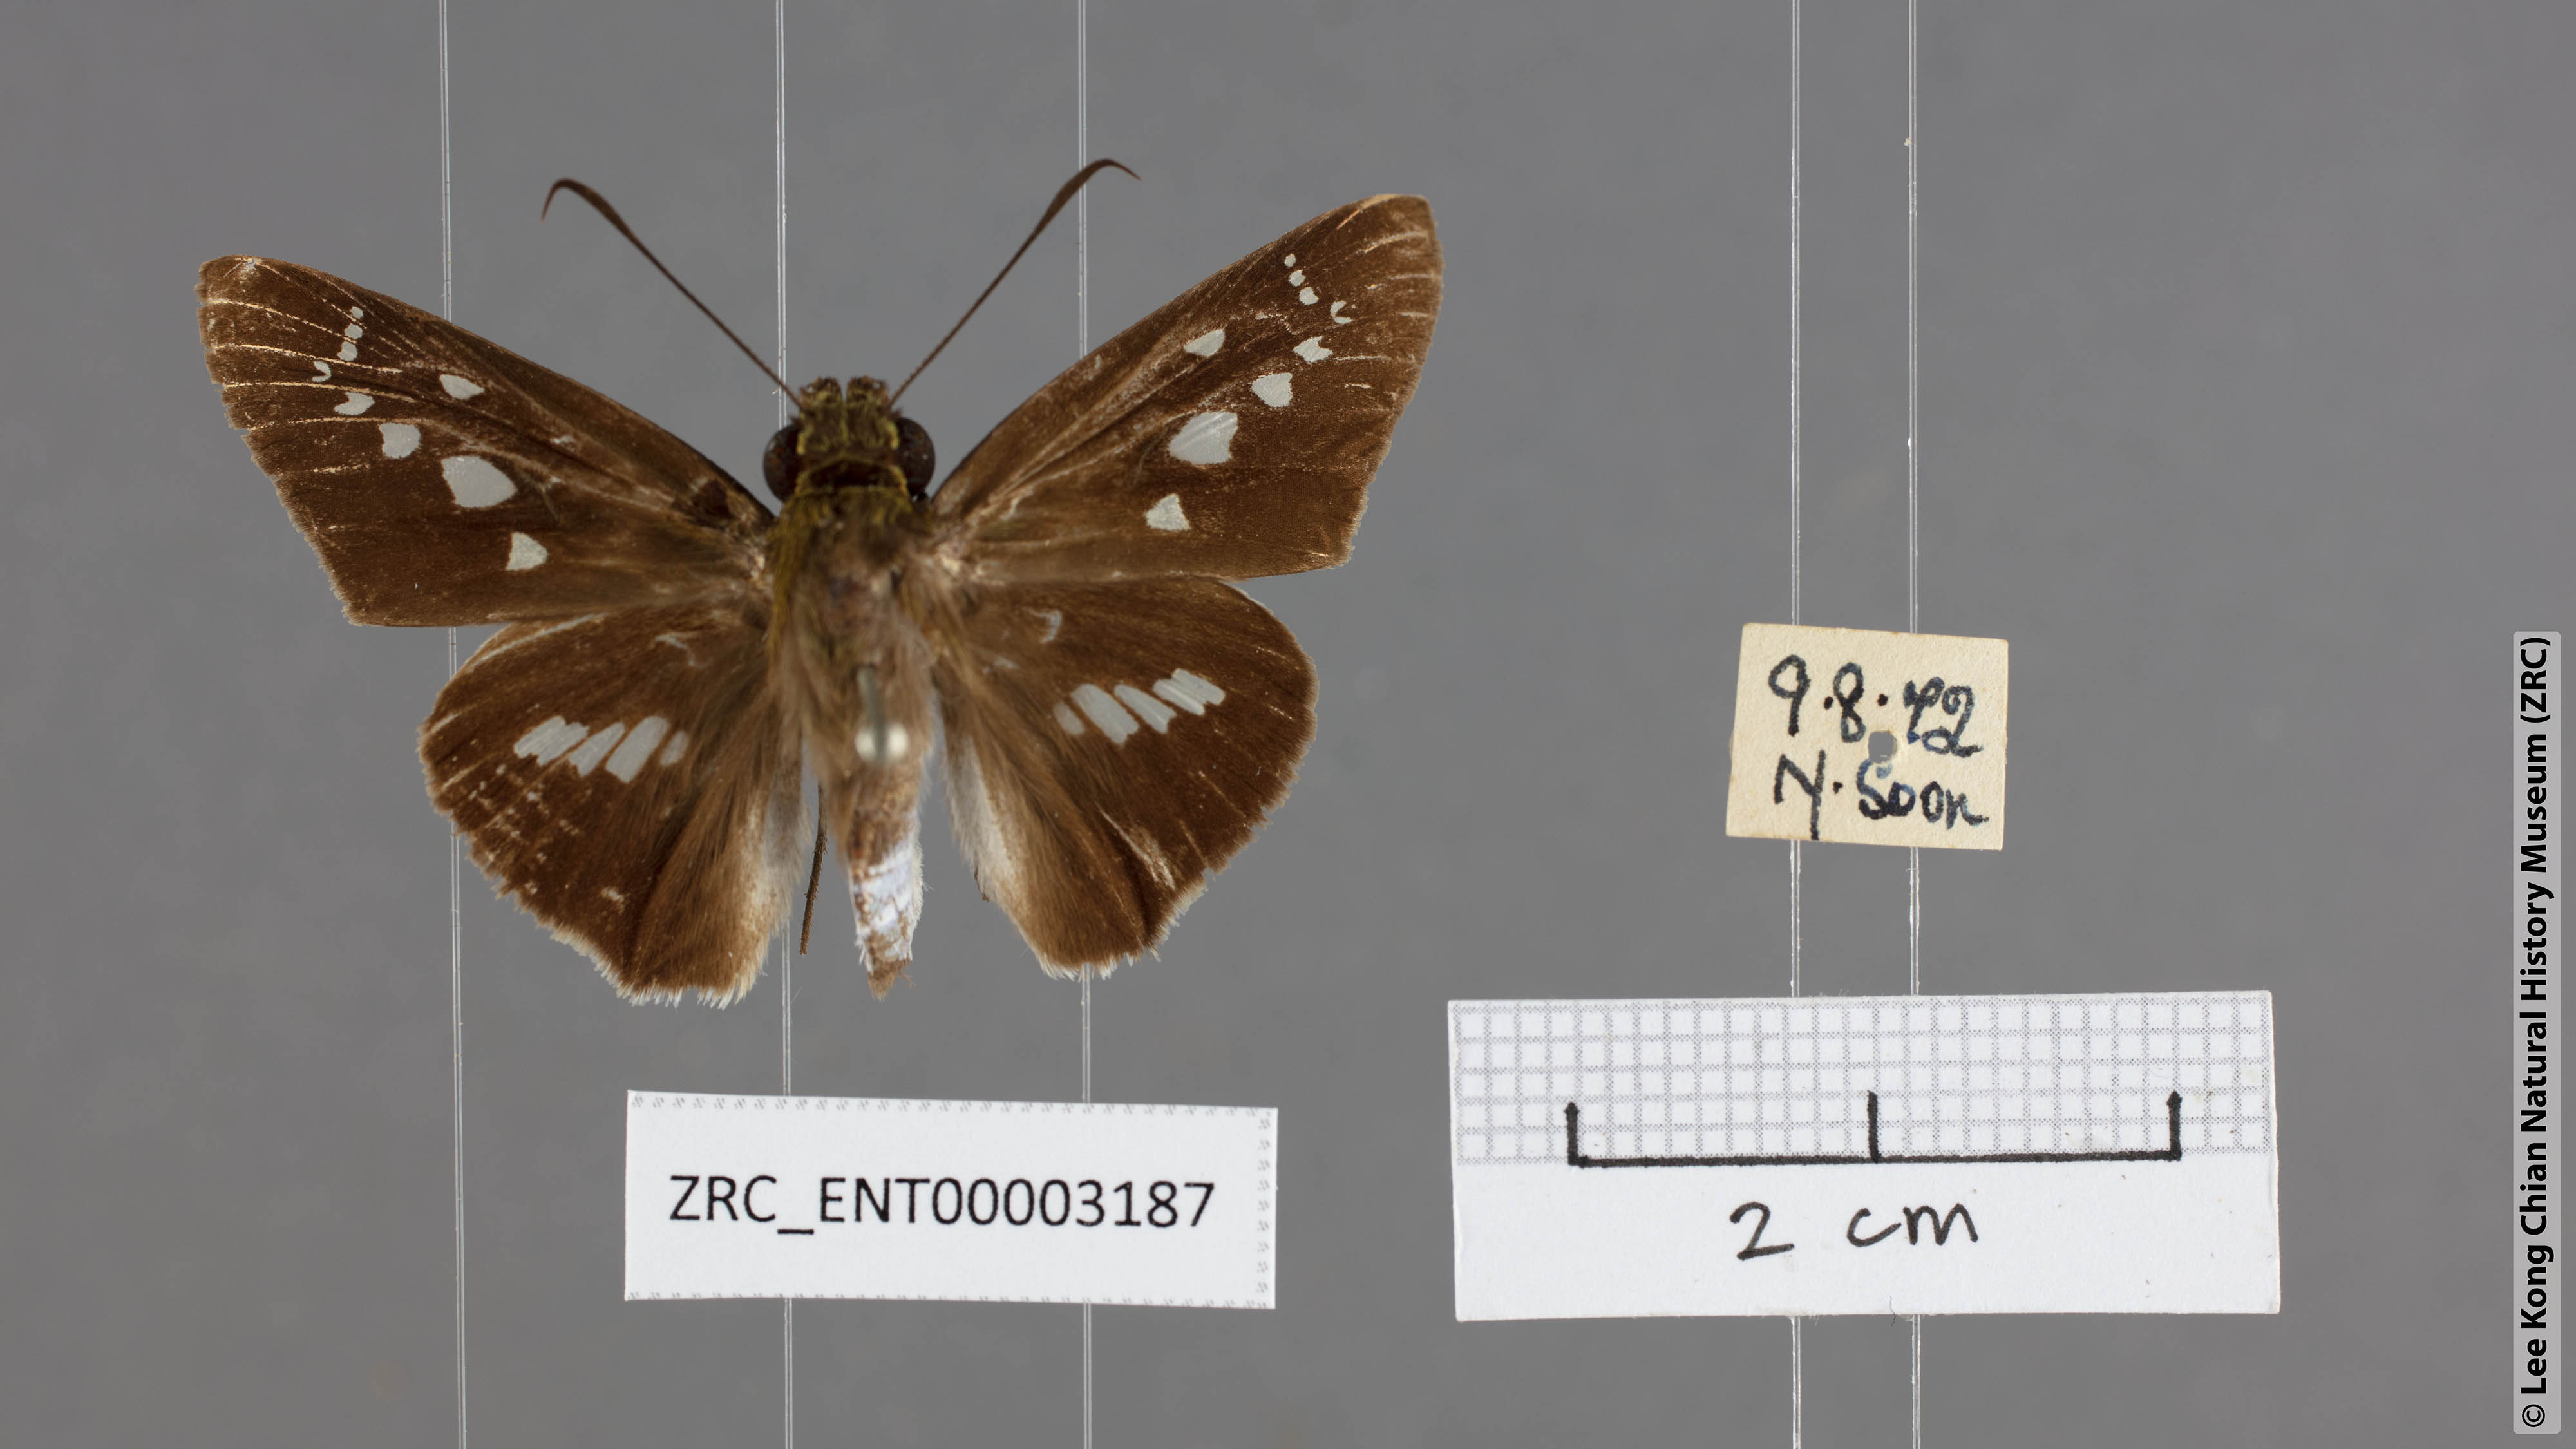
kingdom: Animalia
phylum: Arthropoda
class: Insecta
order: Lepidoptera
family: Hesperiidae
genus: Eetion
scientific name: Eetion elia
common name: White spotted palmer
